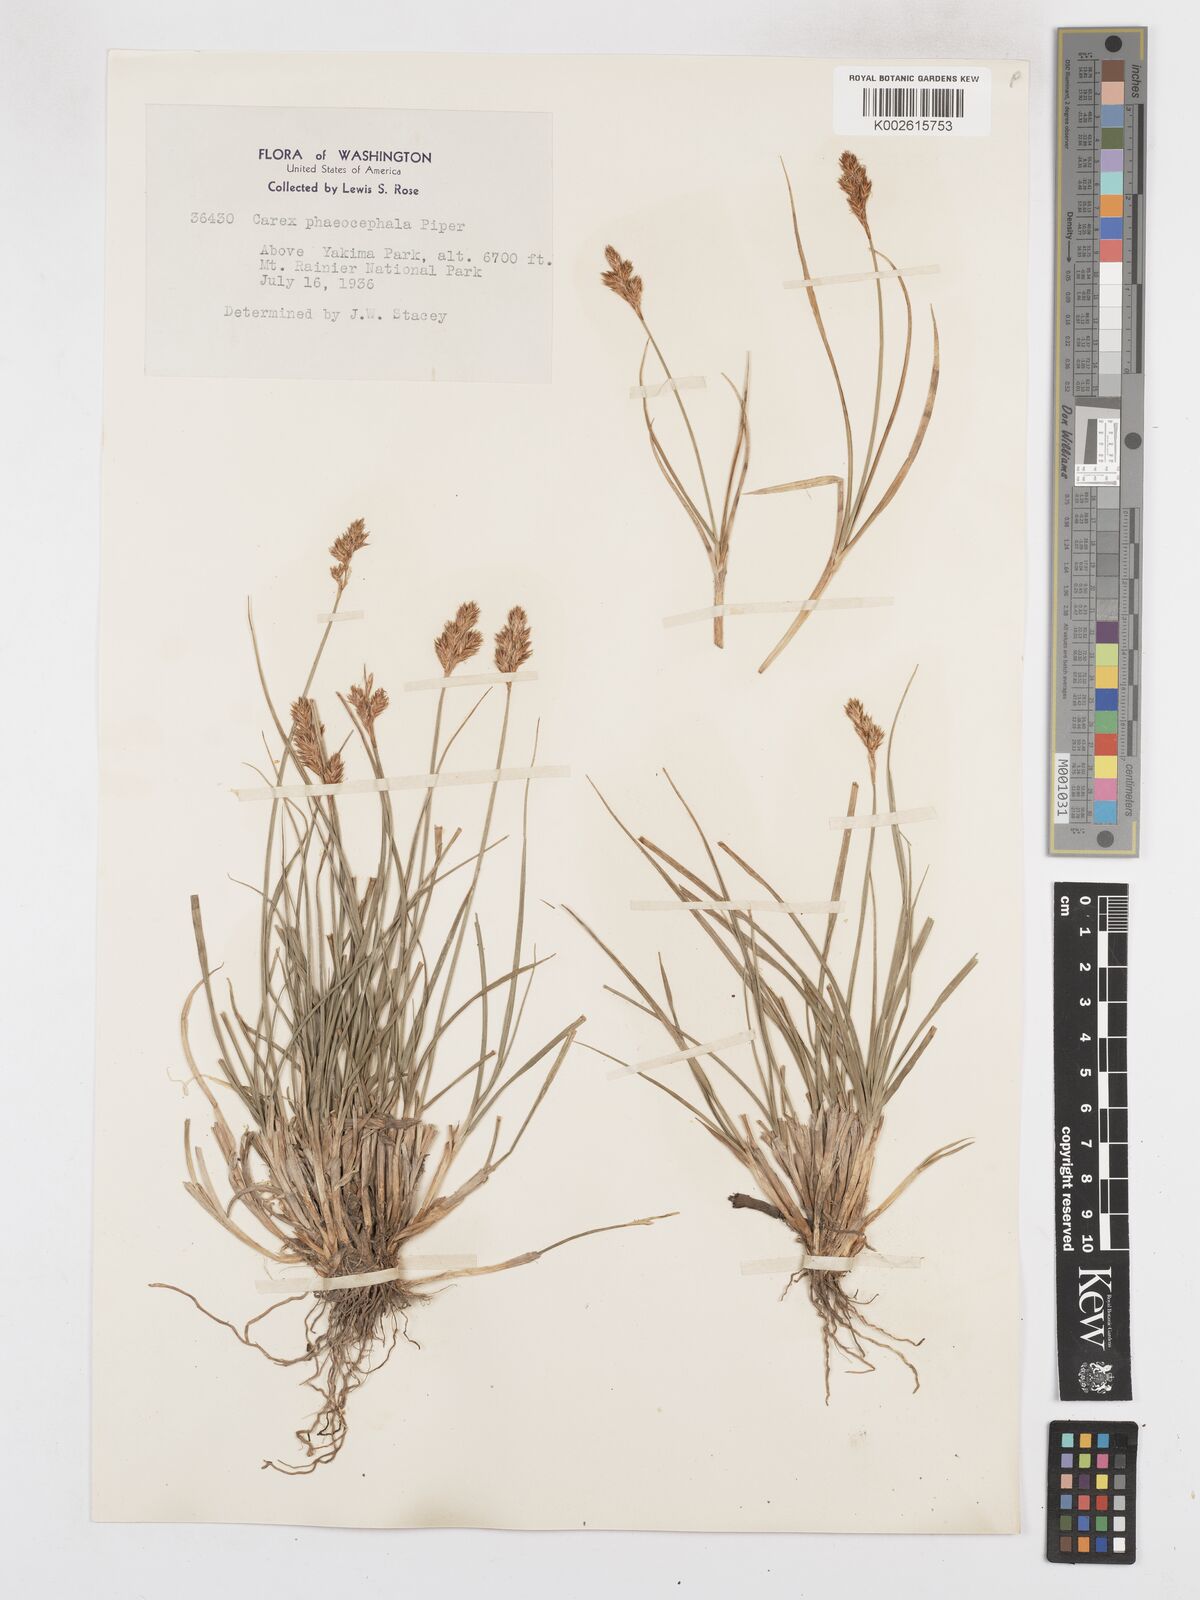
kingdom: Plantae
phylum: Tracheophyta
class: Liliopsida
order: Poales
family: Cyperaceae
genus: Carex
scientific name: Carex phaeocephala
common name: Brown-head sedge
